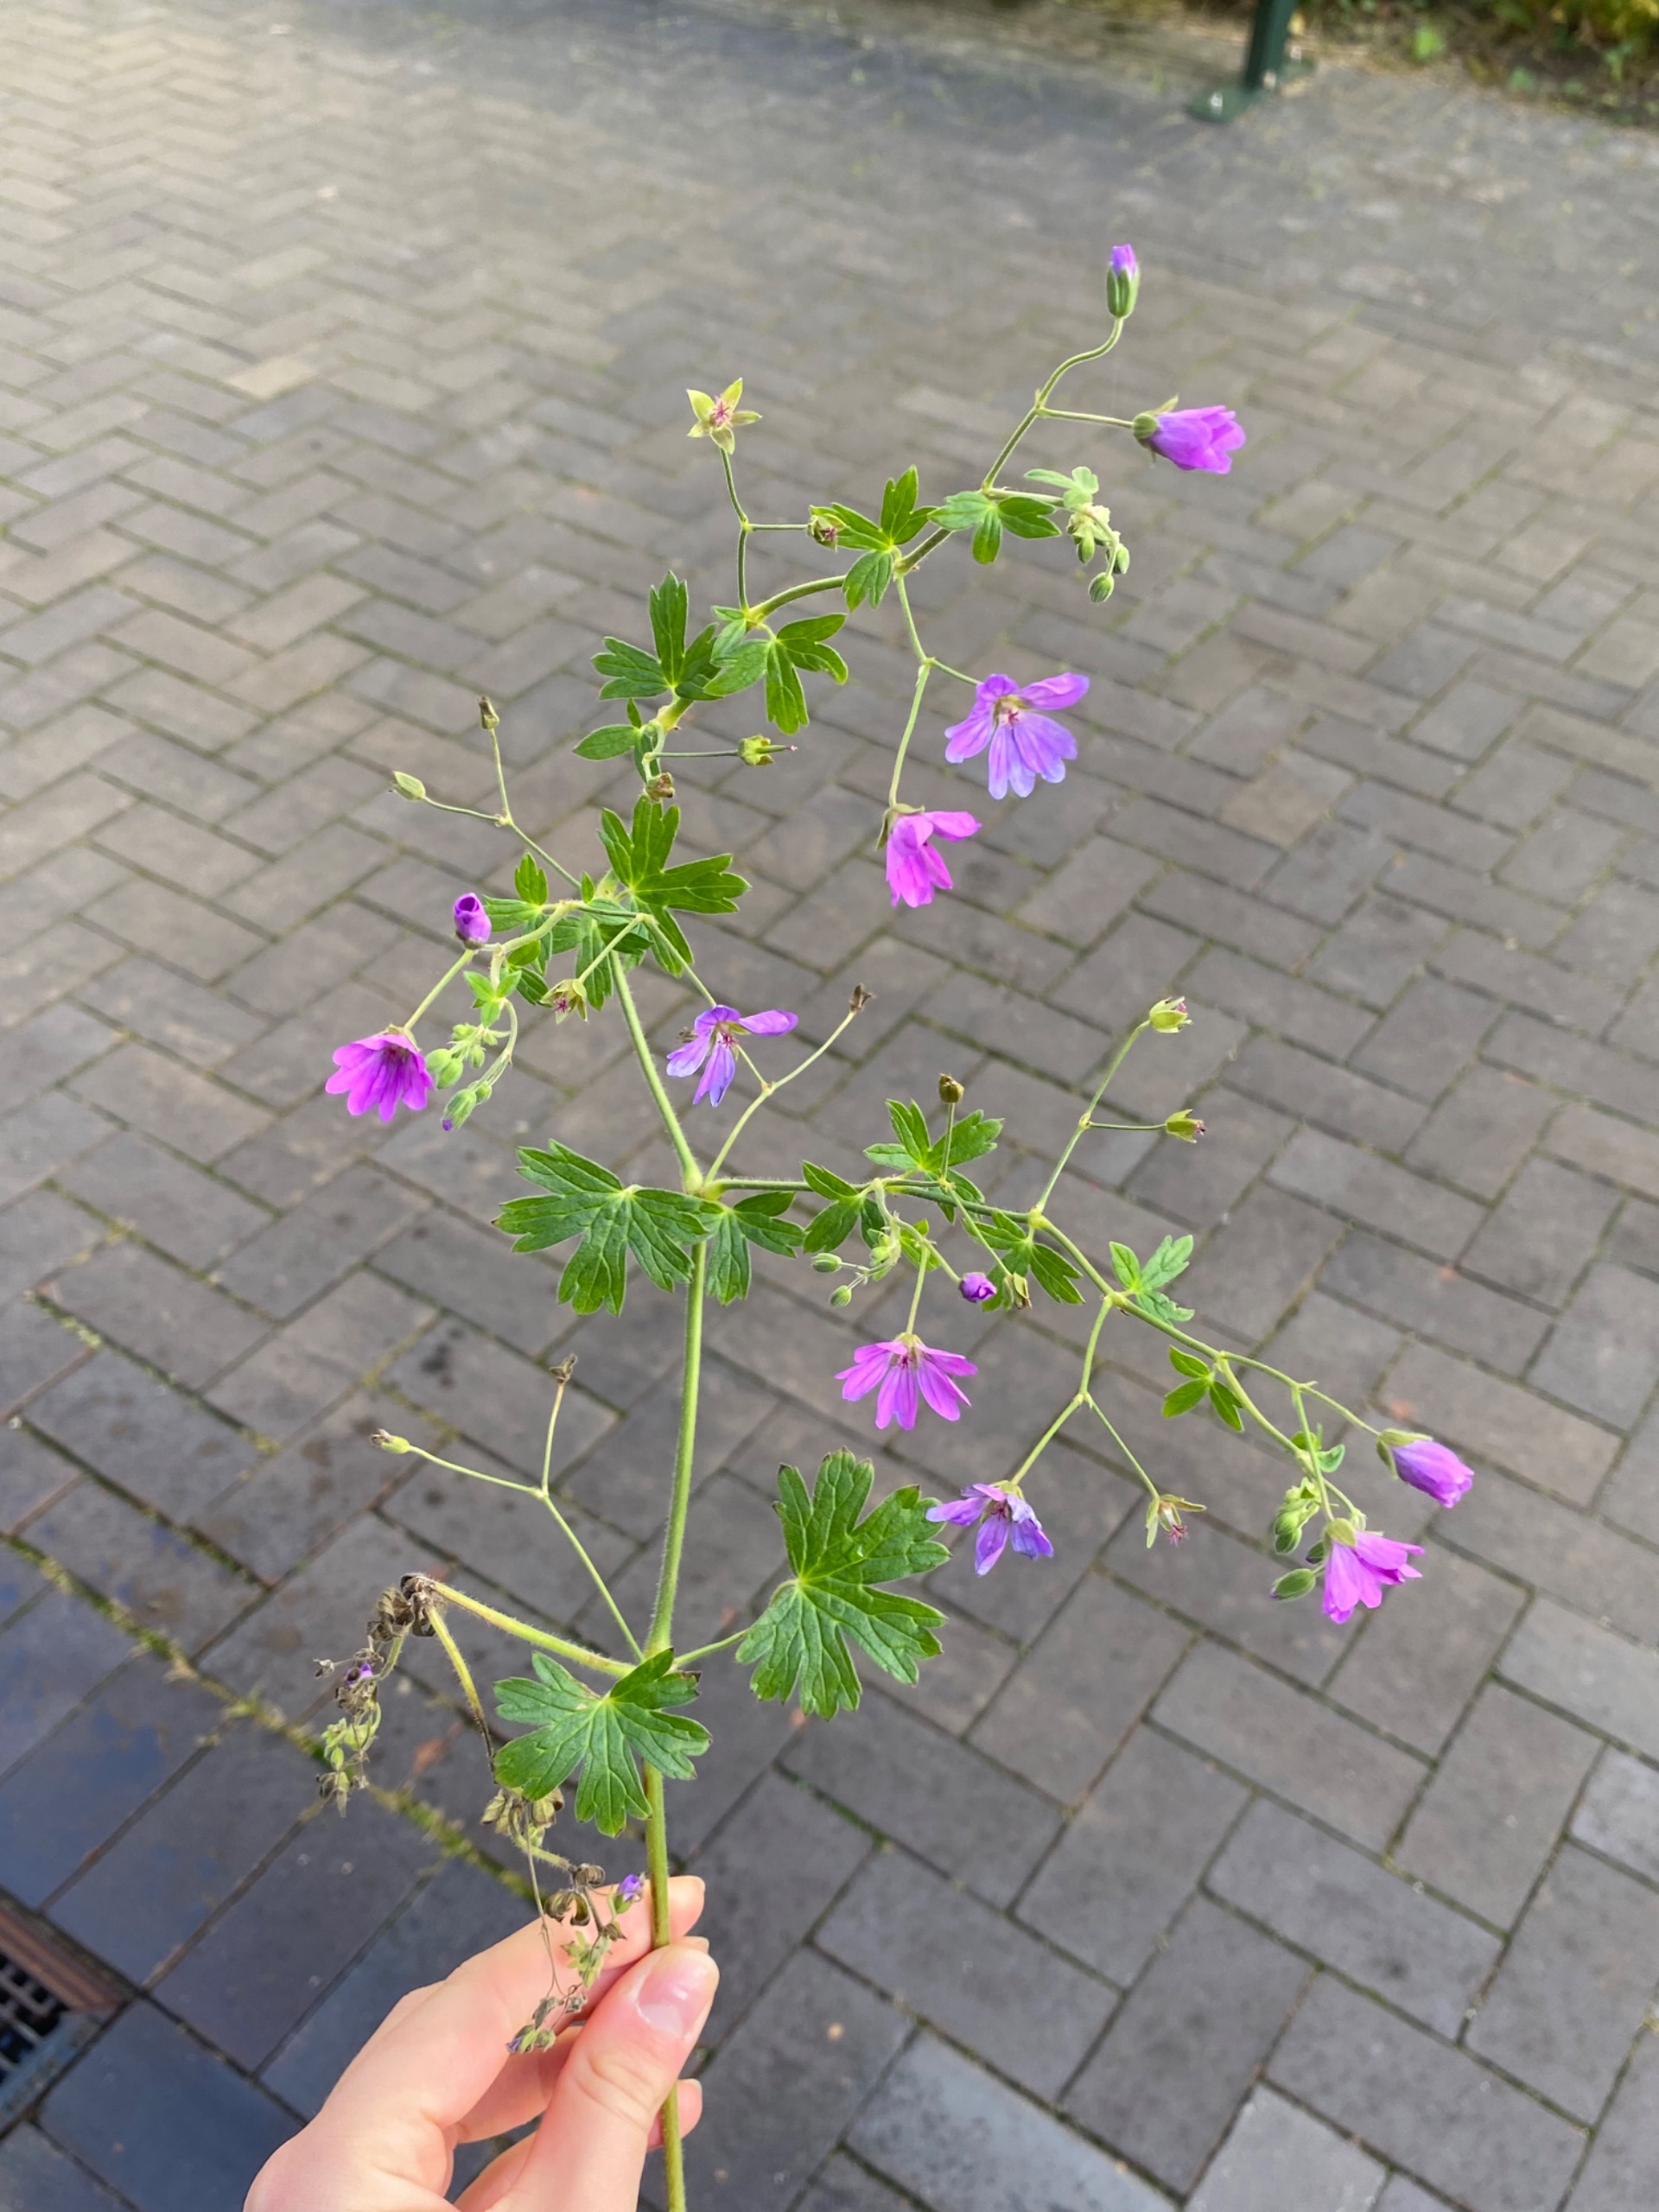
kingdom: Plantae
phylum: Tracheophyta
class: Magnoliopsida
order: Geraniales
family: Geraniaceae
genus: Geranium
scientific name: Geranium pyrenaicum
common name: Pyrenæisk storkenæb
